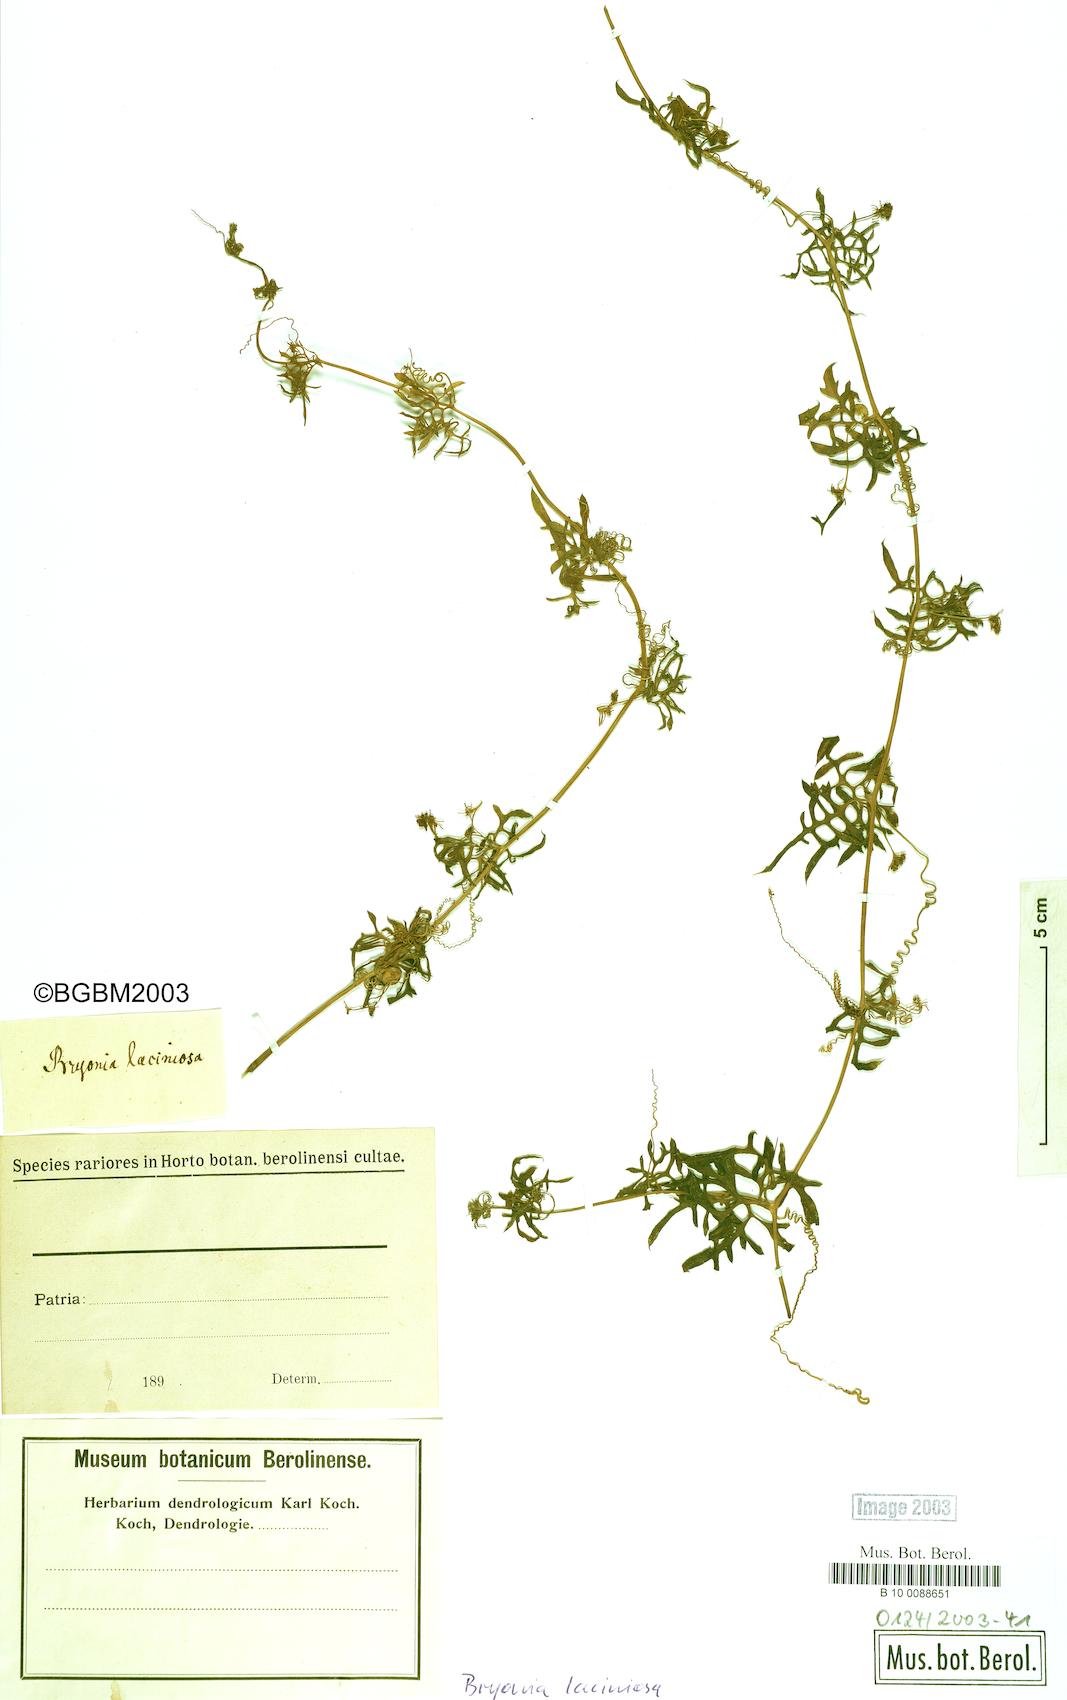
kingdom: Plantae
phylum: Tracheophyta
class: Magnoliopsida
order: Cucurbitales
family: Cucurbitaceae
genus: Diplocyclos
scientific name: Diplocyclos palmatus
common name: Striped-cucumber
